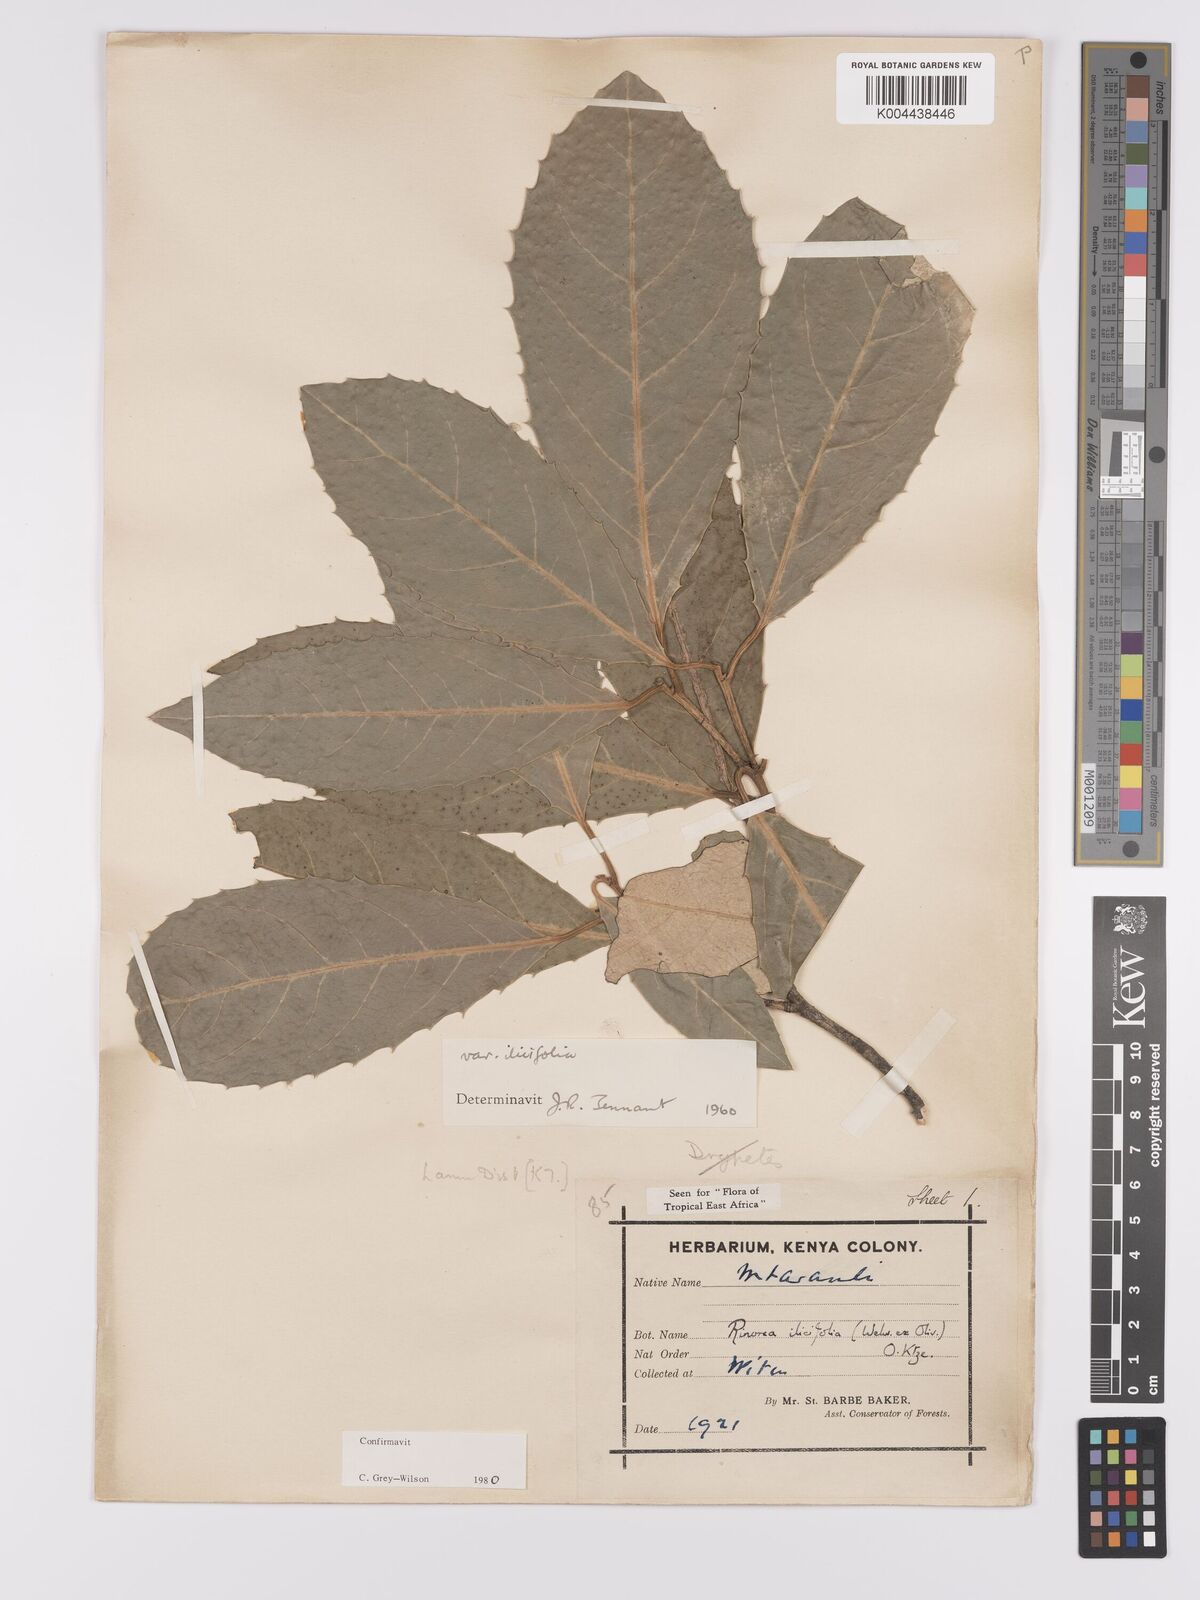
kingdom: Plantae
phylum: Tracheophyta
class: Magnoliopsida
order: Malpighiales
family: Violaceae
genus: Rinorea
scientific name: Rinorea ilicifolia
